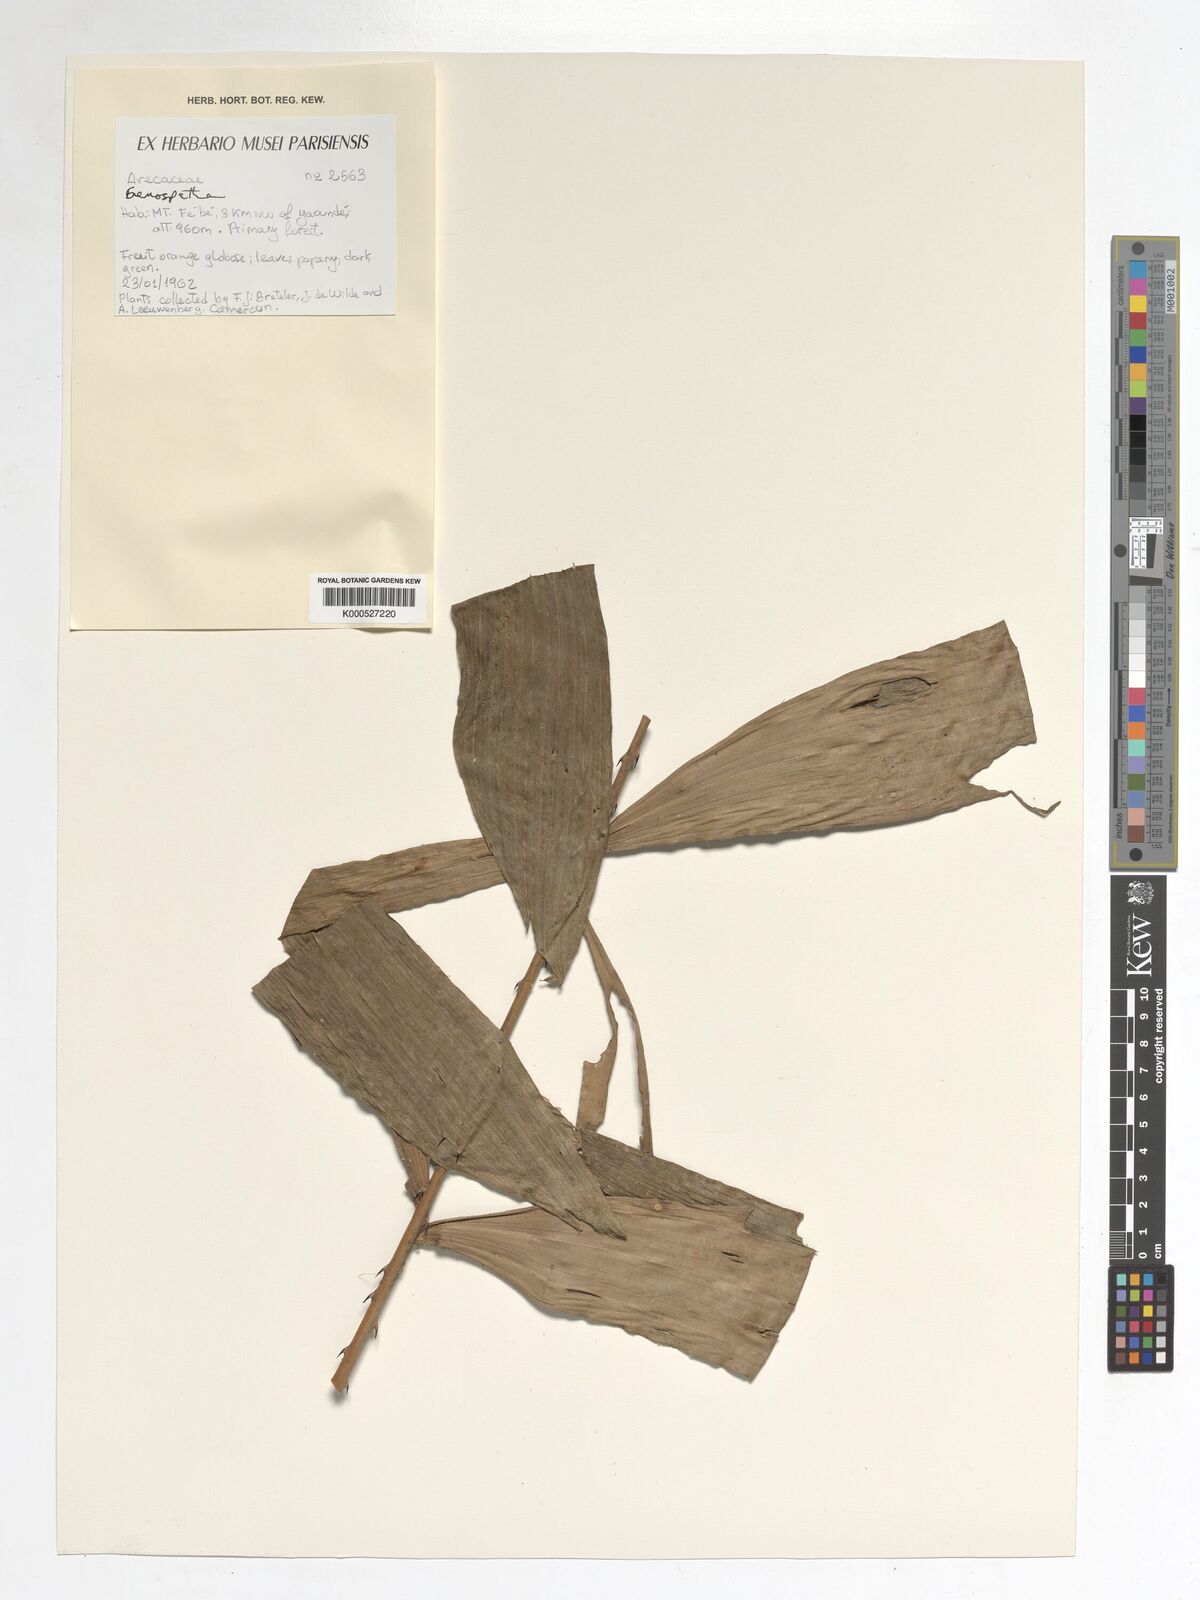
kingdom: Plantae
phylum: Tracheophyta
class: Liliopsida
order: Arecales
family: Arecaceae
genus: Eremospatha
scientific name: Eremospatha
